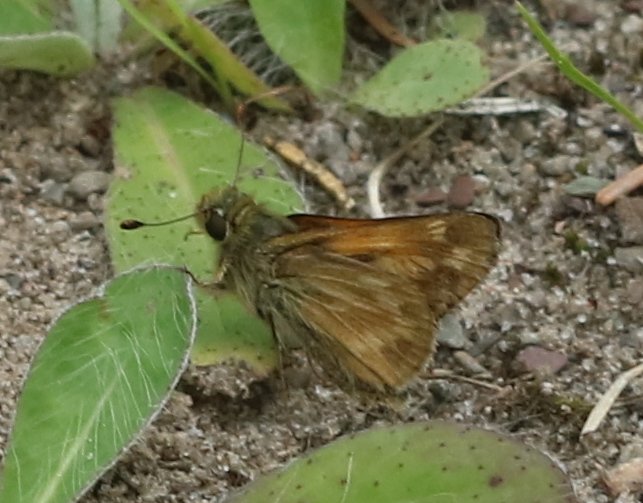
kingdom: Animalia
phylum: Arthropoda
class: Insecta
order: Lepidoptera
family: Hesperiidae
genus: Polites
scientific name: Polites
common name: Long Dash Skipper
